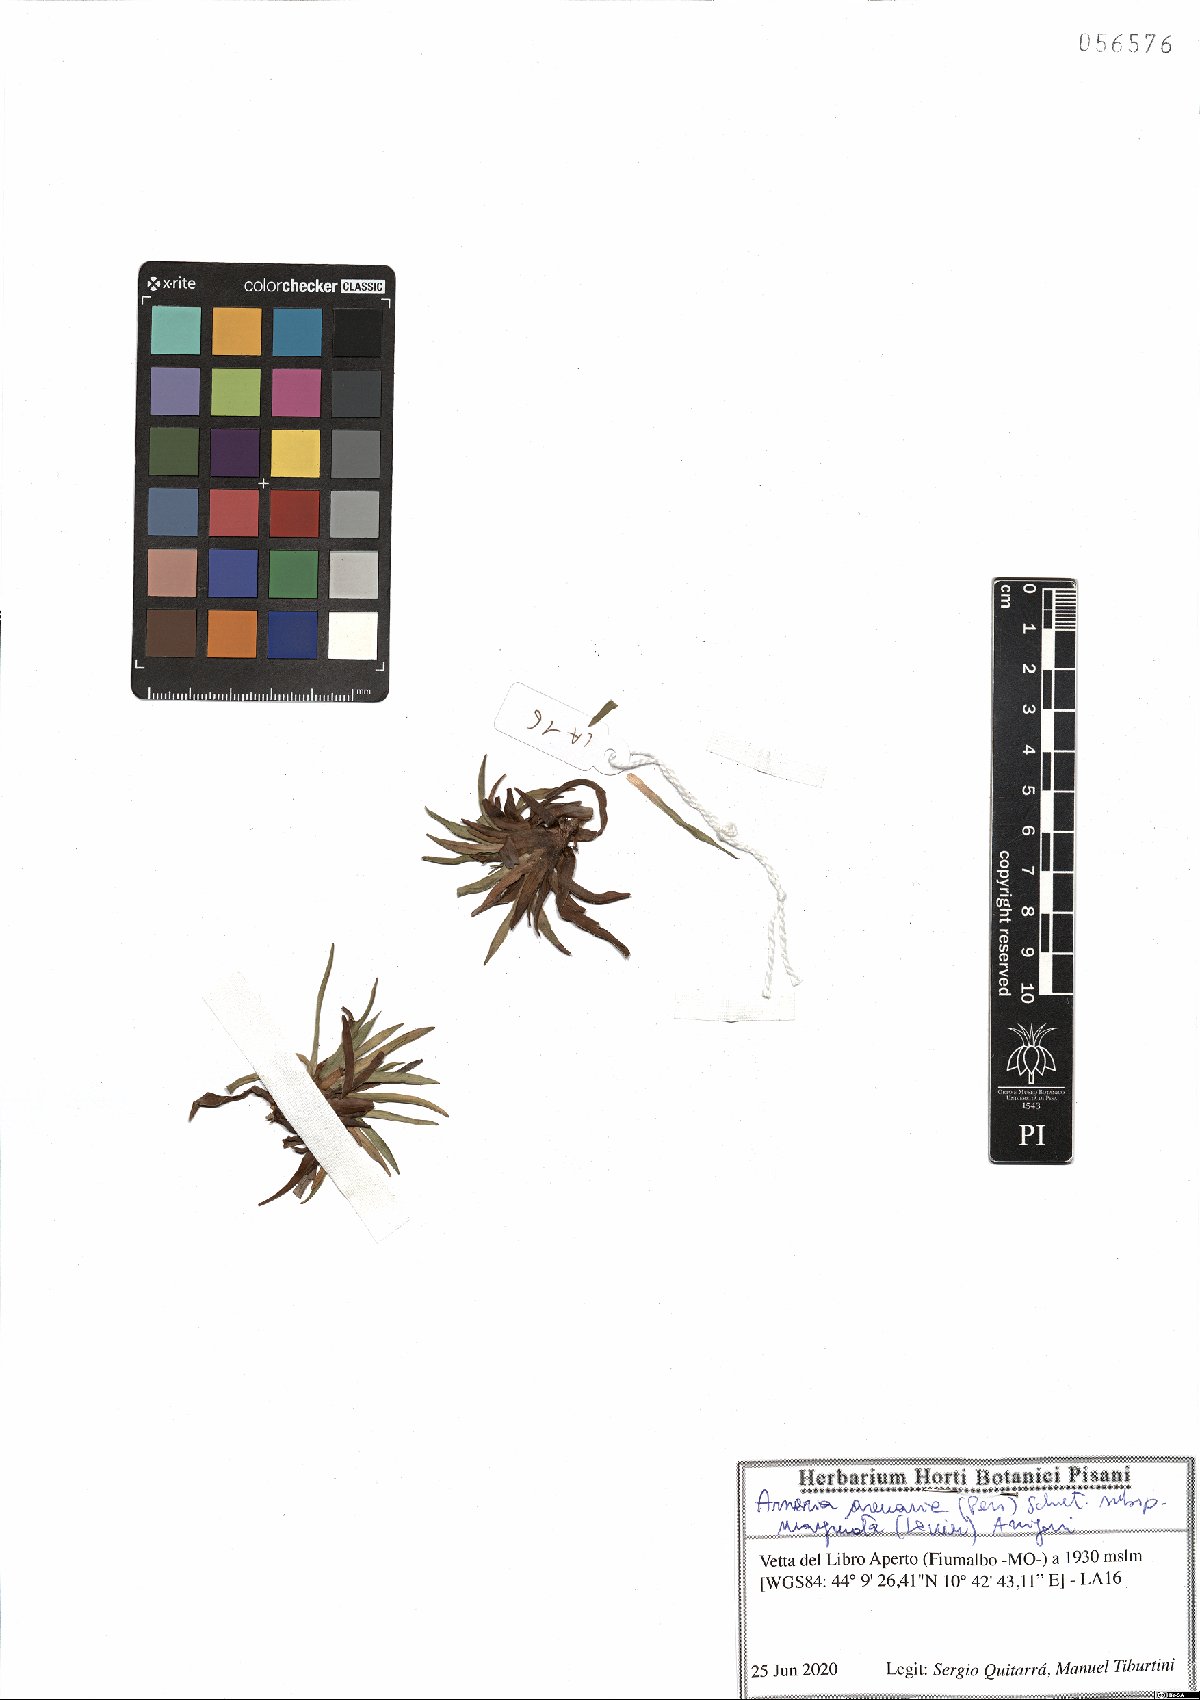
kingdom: Plantae
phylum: Tracheophyta
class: Magnoliopsida
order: Caryophyllales
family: Plumbaginaceae
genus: Armeria
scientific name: Armeria arenaria
